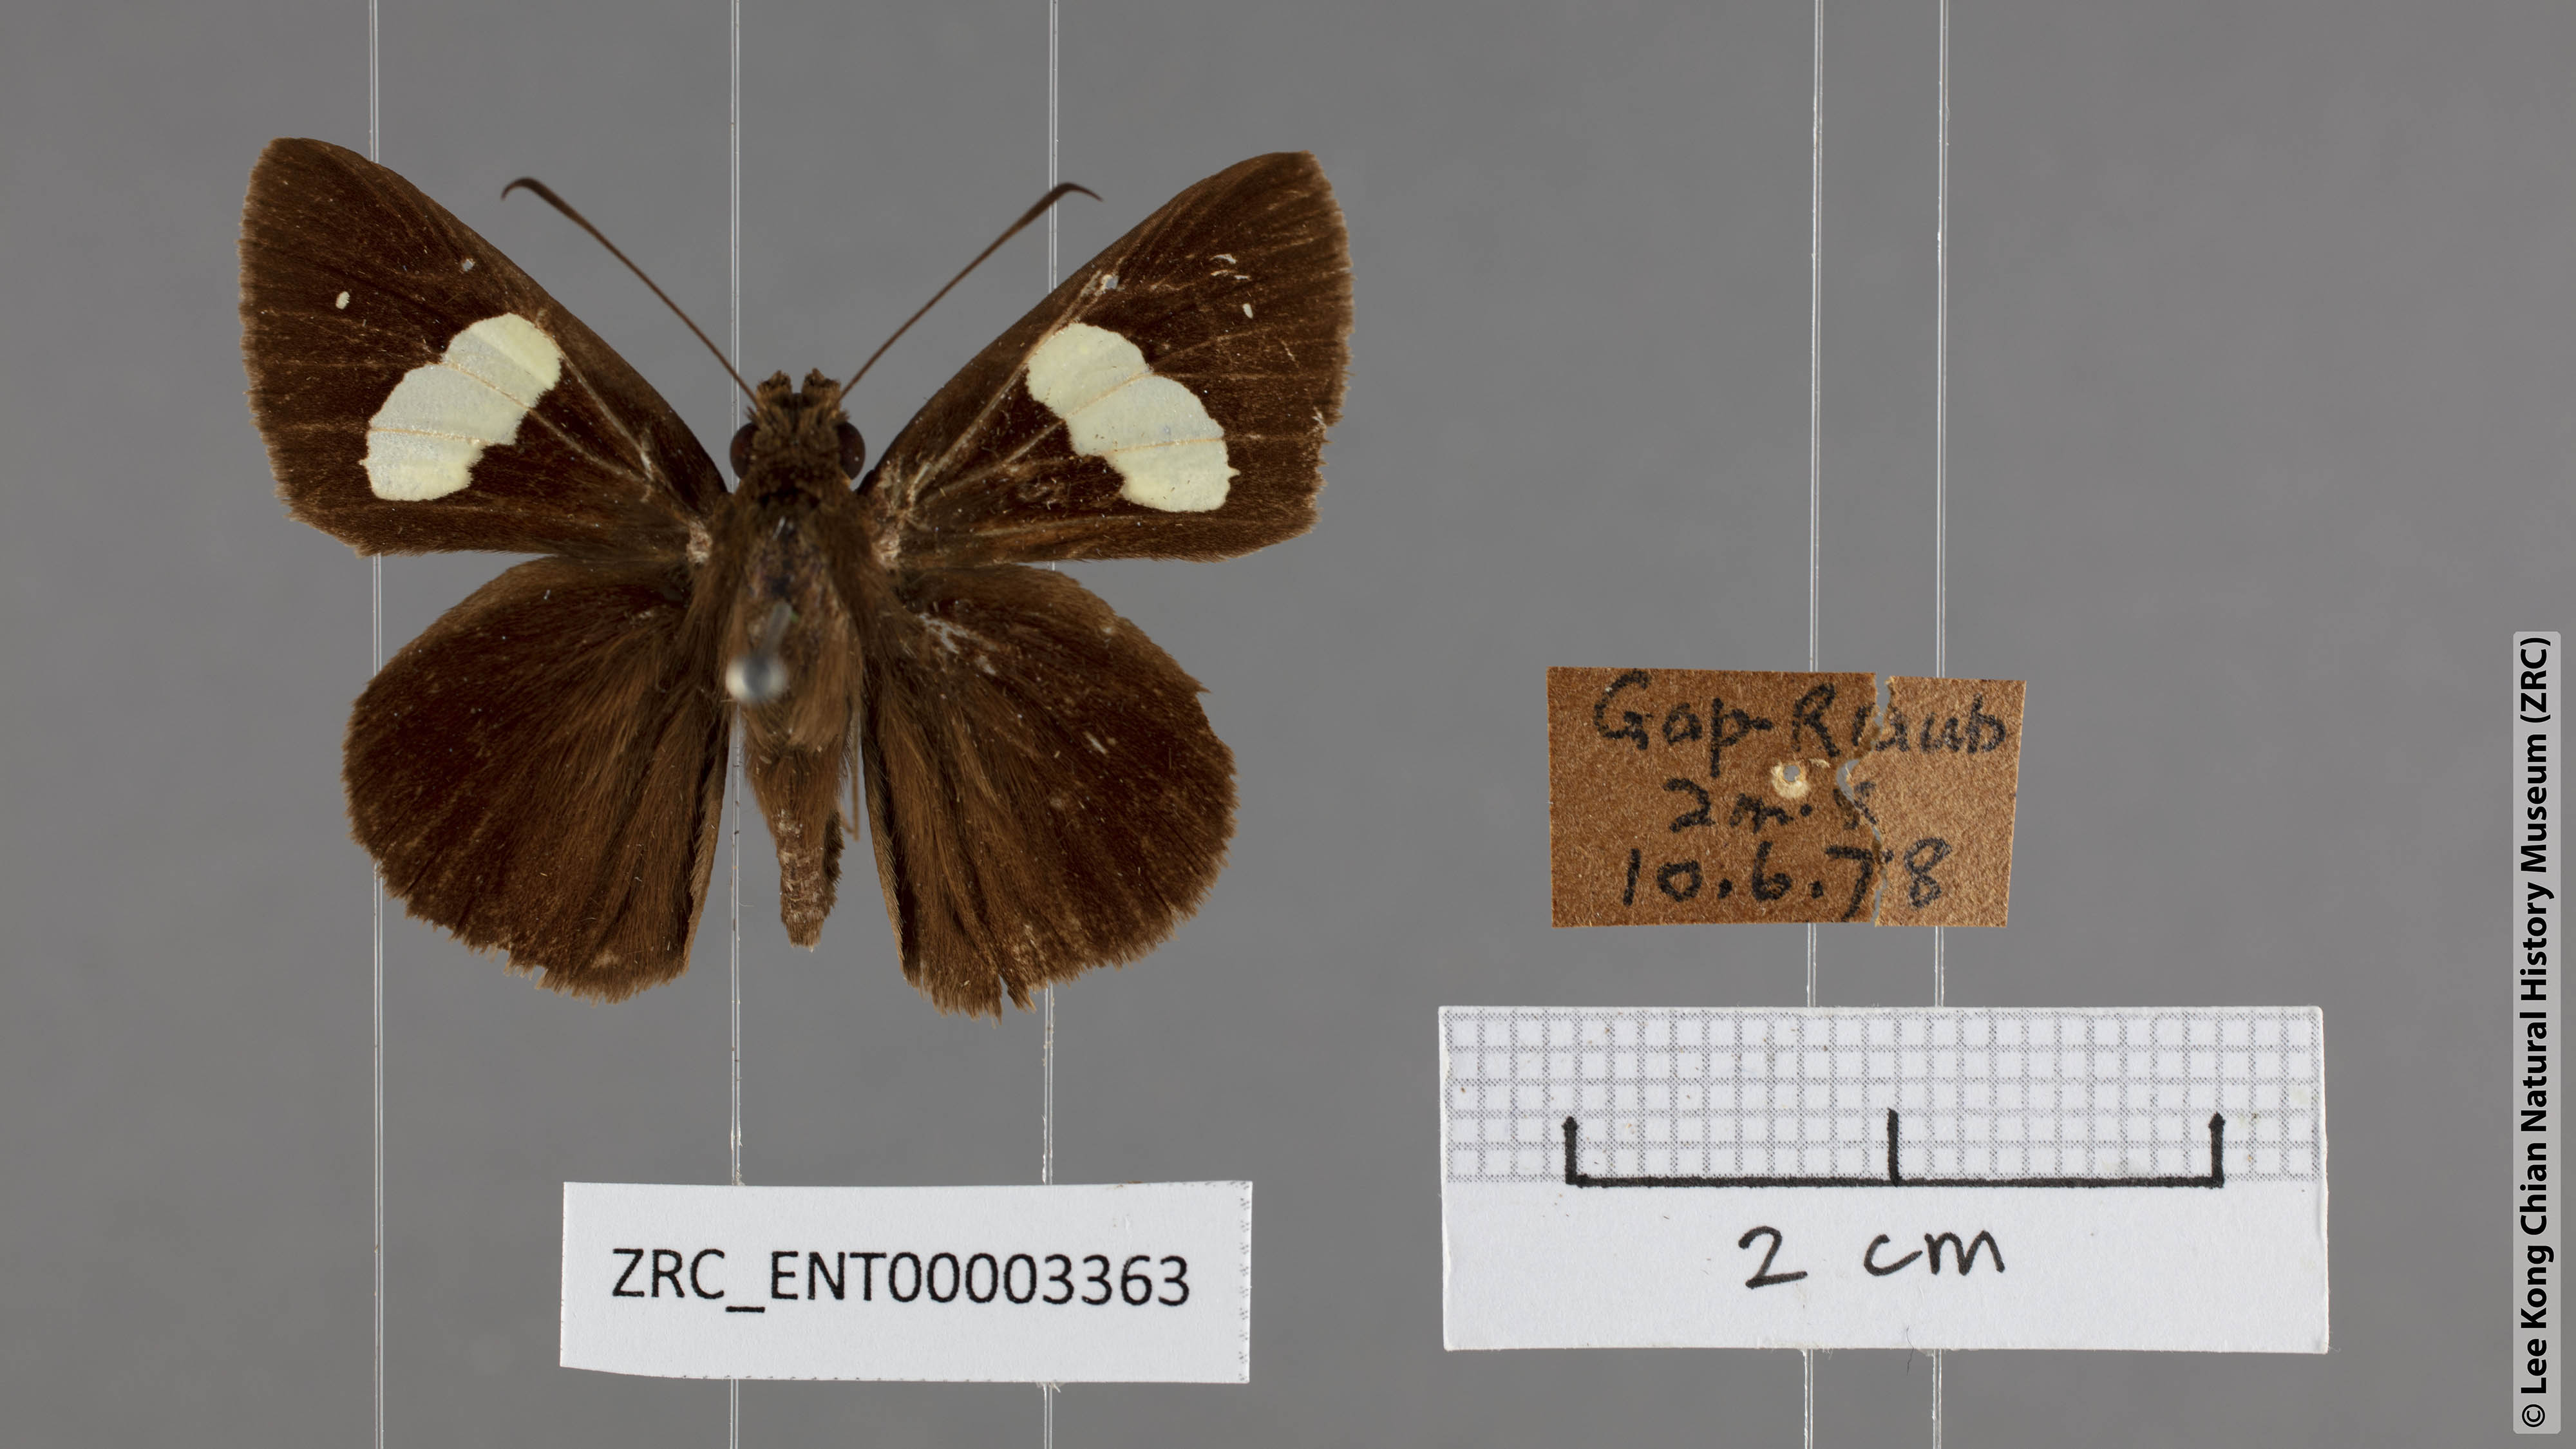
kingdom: Animalia
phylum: Arthropoda
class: Insecta
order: Lepidoptera
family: Hesperiidae
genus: Notocrypta
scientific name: Notocrypta paralysos
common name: Common banded demon
